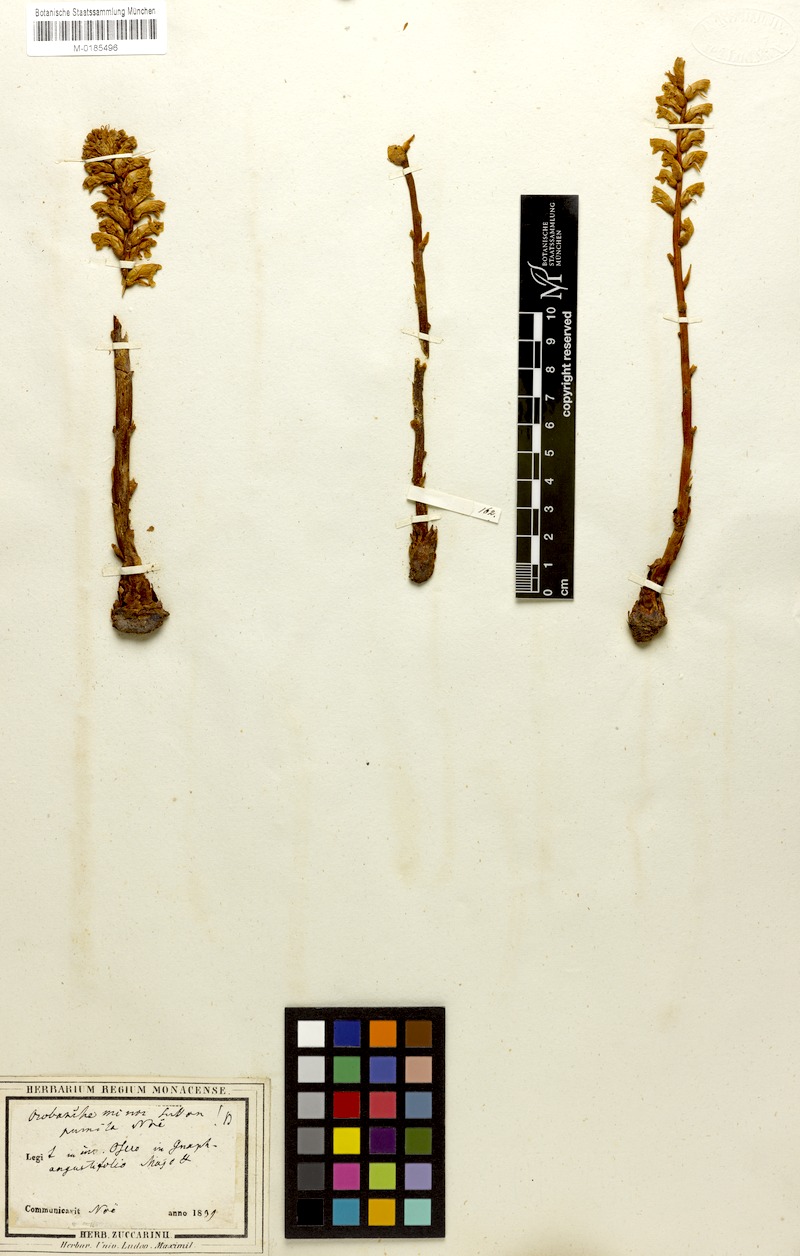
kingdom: Plantae
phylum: Tracheophyta
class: Magnoliopsida
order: Lamiales
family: Orobanchaceae
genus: Orobanche
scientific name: Orobanche minor
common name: Common broomrape
